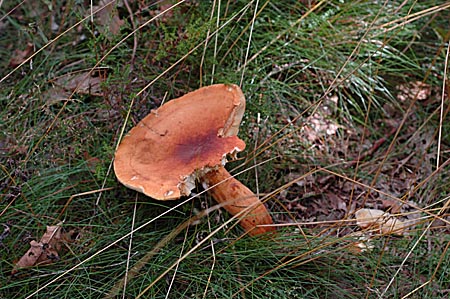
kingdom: Fungi
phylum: Basidiomycota
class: Agaricomycetes
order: Russulales
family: Russulaceae
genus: Lactifluus
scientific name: Lactifluus volemus
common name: spiselig mælkehat
